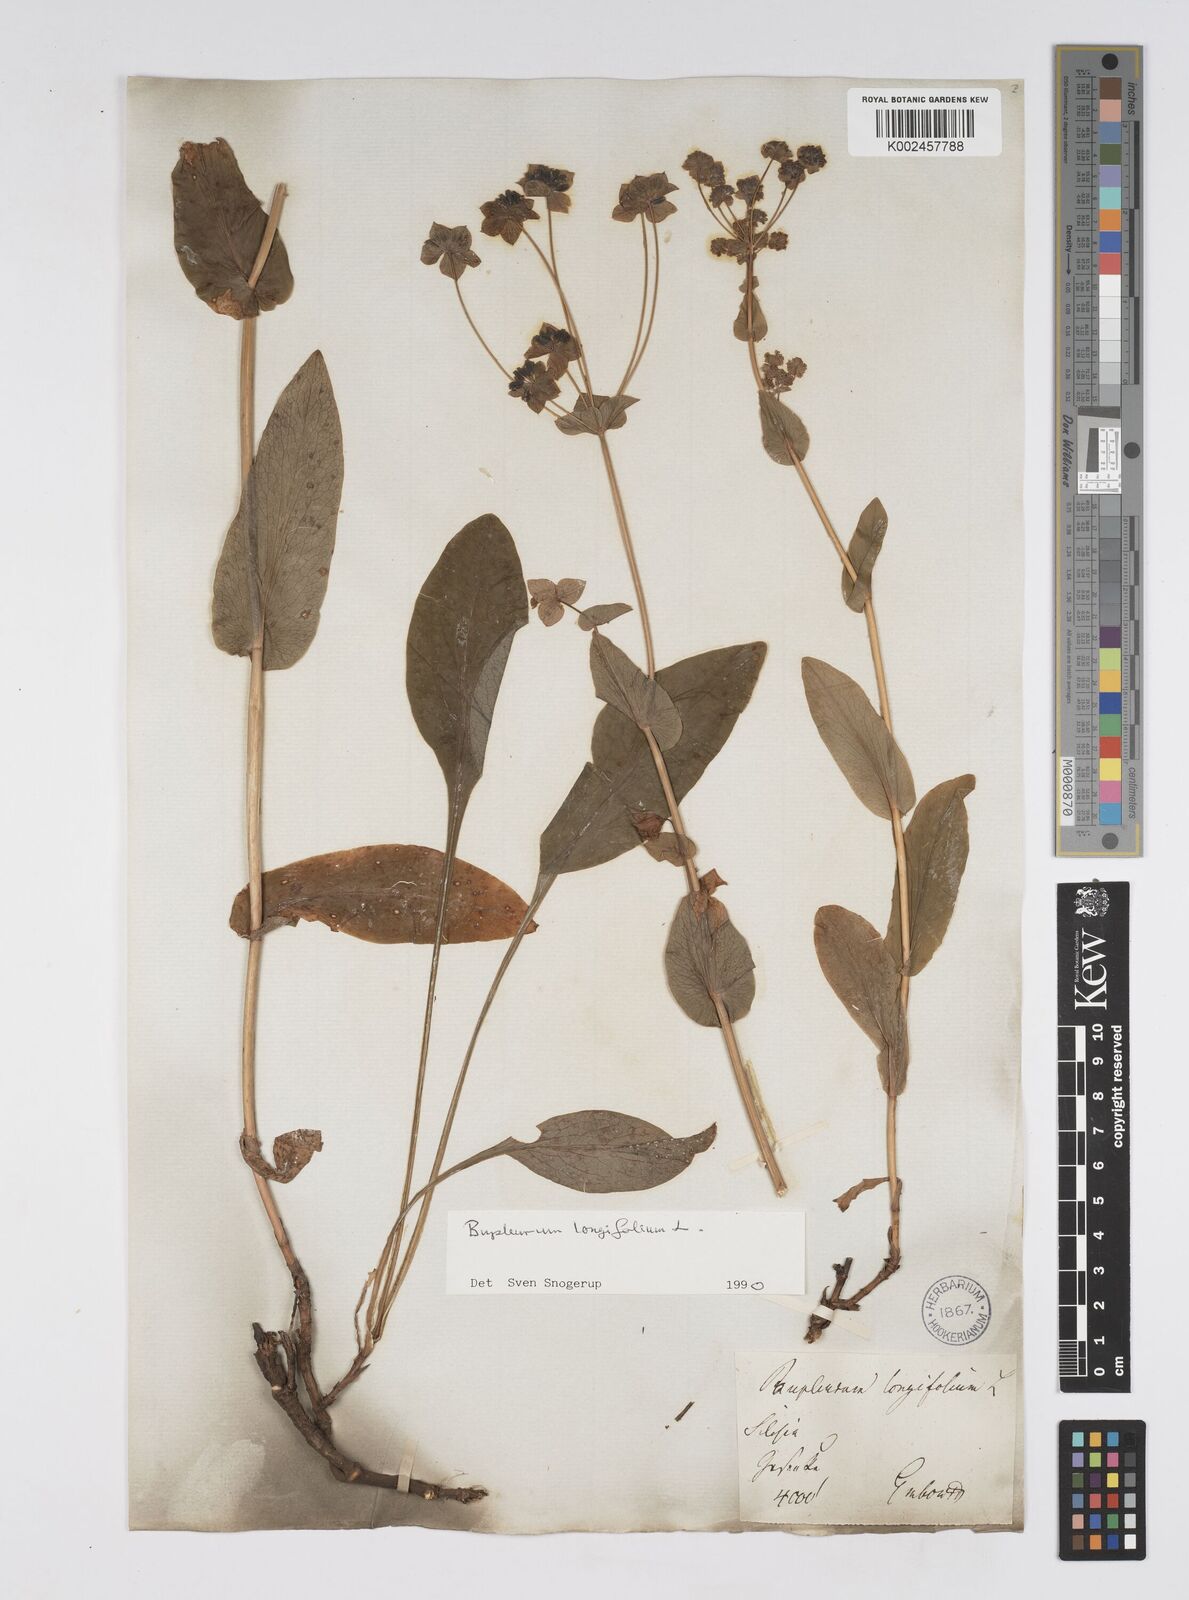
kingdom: Plantae
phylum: Tracheophyta
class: Magnoliopsida
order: Apiales
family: Apiaceae
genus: Bupleurum
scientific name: Bupleurum longifolium
